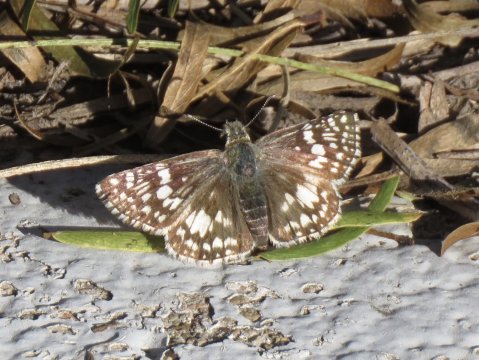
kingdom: Animalia
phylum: Arthropoda
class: Insecta
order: Lepidoptera
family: Hesperiidae
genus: Pyrgus
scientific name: Pyrgus communis
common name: White Checkered-Skipper
